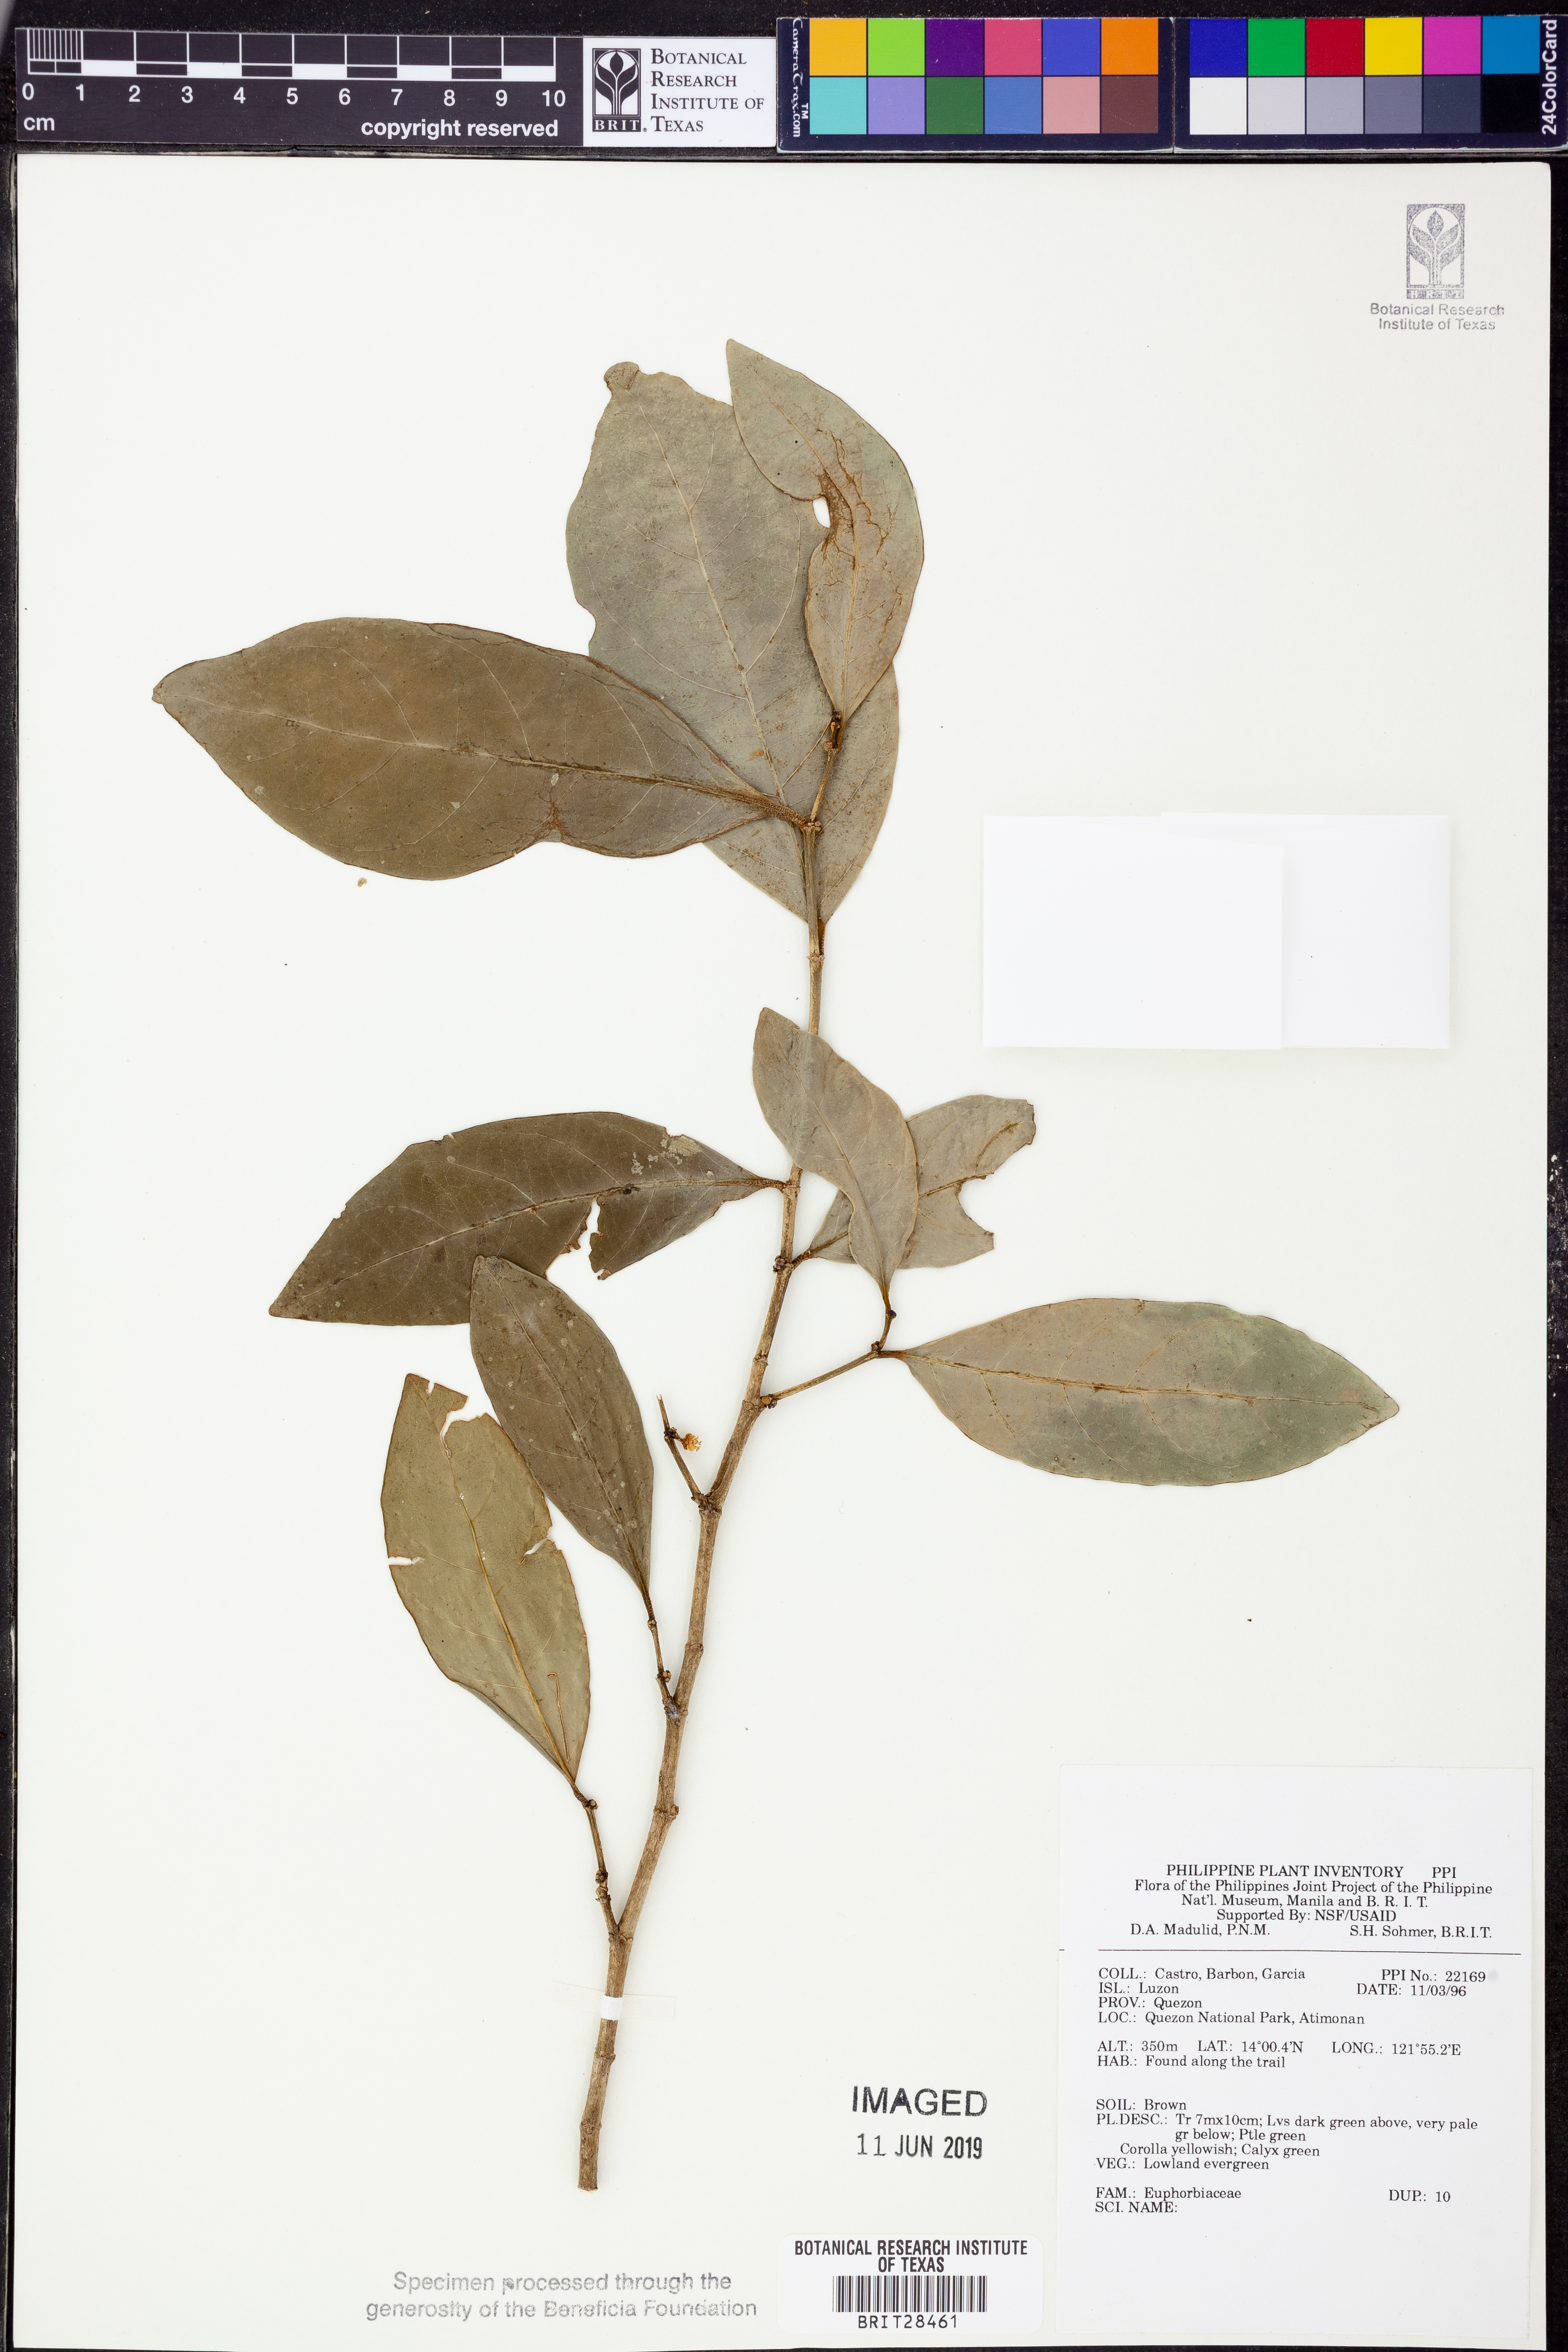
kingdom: Plantae
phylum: Tracheophyta
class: Magnoliopsida
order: Malpighiales
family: Euphorbiaceae
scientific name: Euphorbiaceae
